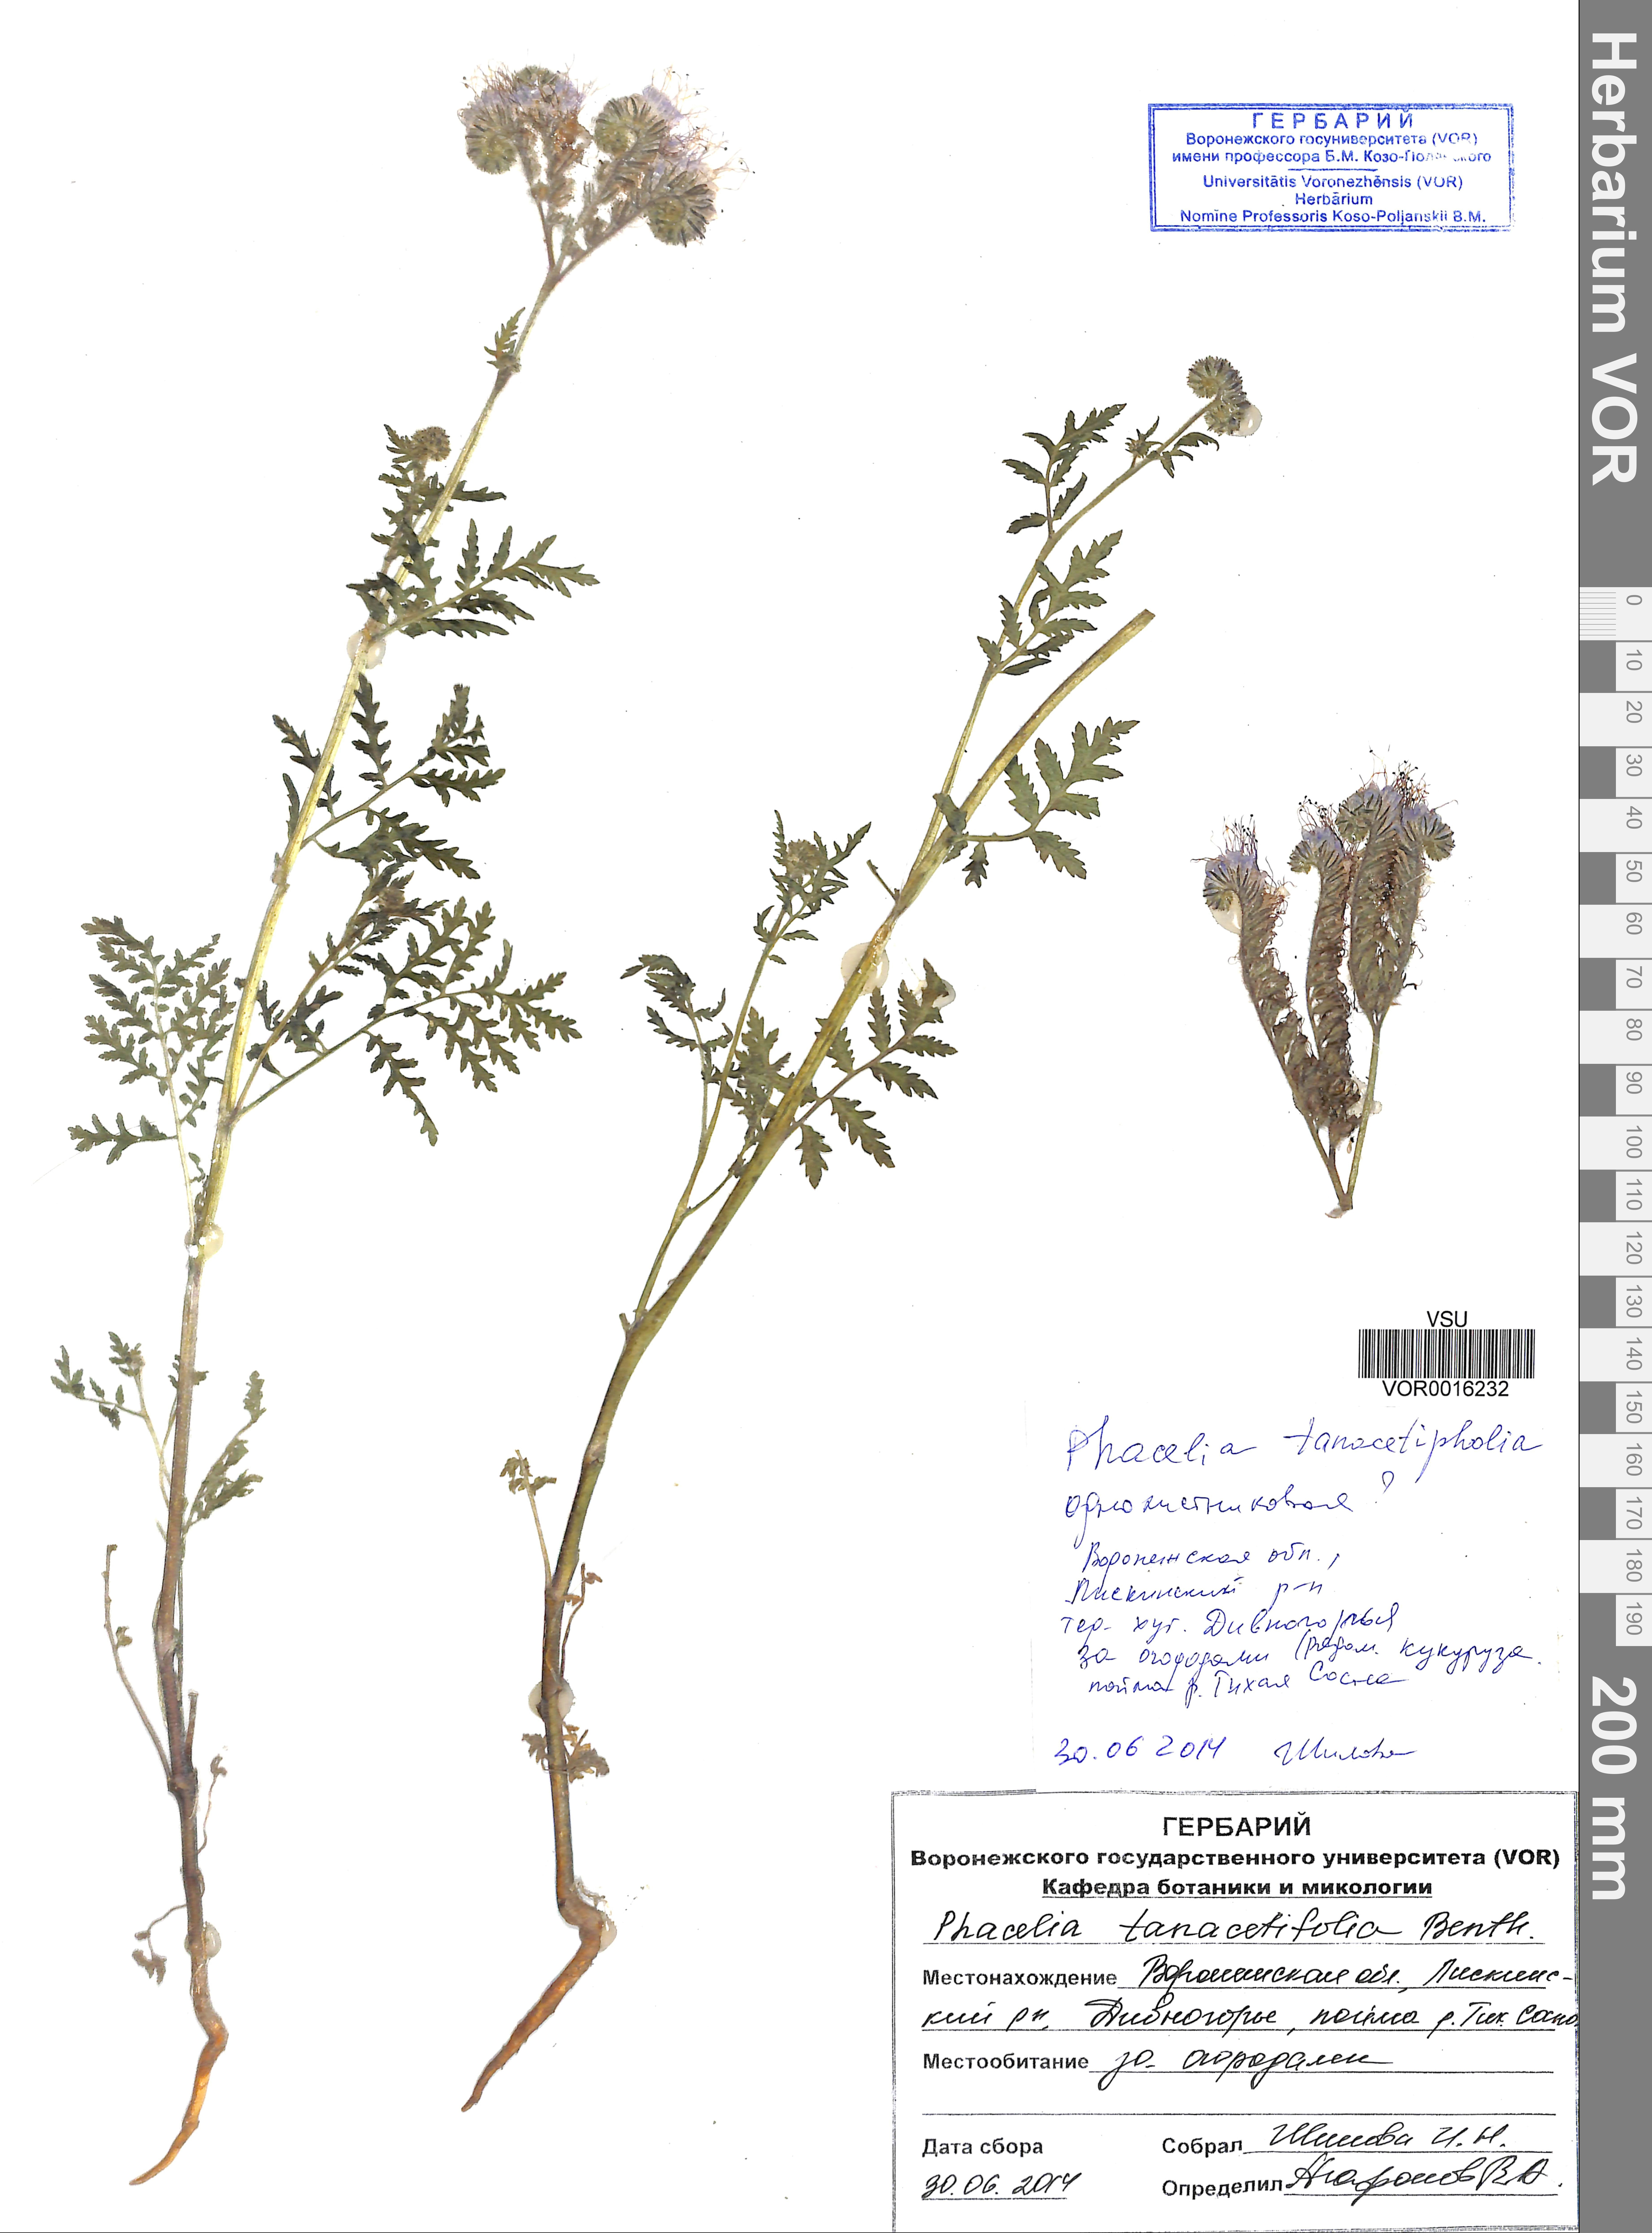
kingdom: Plantae
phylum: Tracheophyta
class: Magnoliopsida
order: Boraginales
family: Hydrophyllaceae
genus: Phacelia
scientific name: Phacelia tanacetifolia
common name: Phacelia
